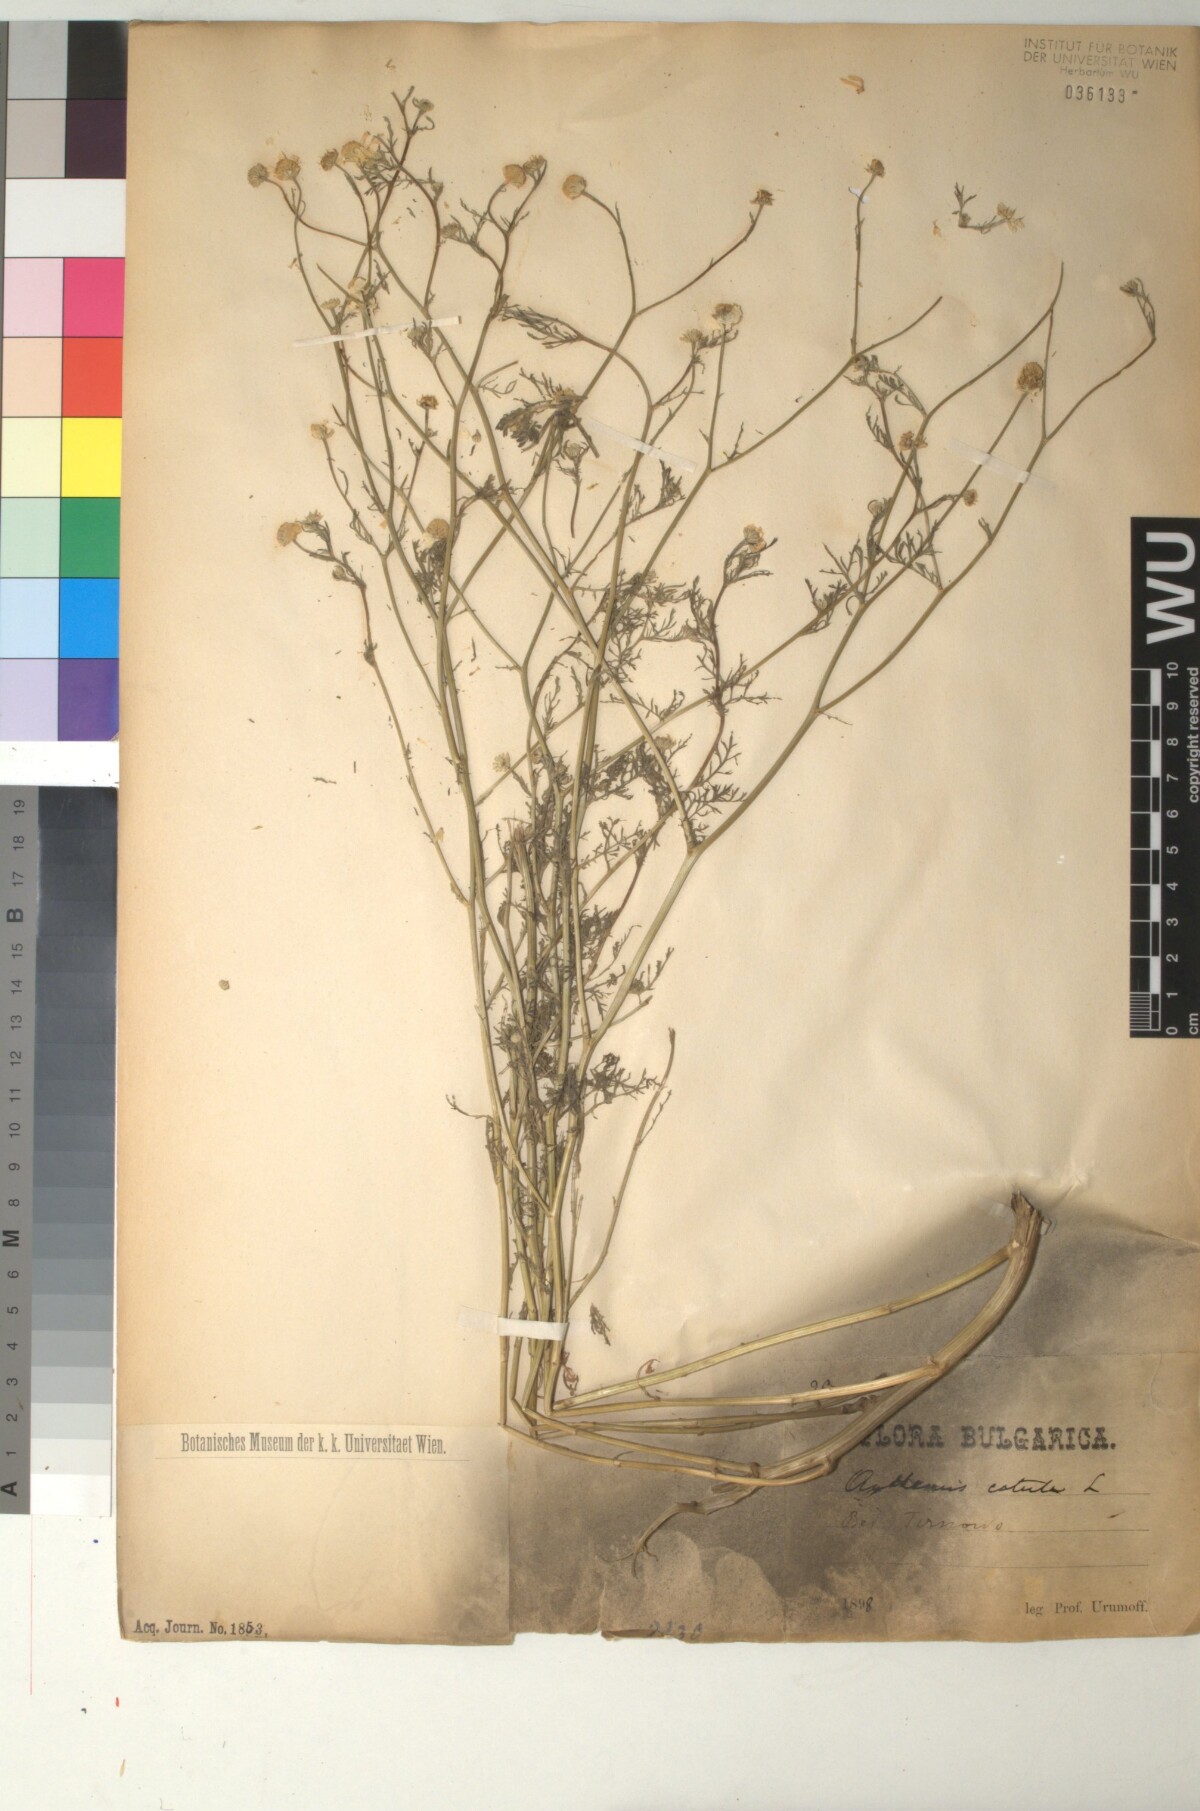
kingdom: Plantae
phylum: Tracheophyta
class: Magnoliopsida
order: Asterales
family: Asteraceae
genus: Anthemis
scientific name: Anthemis cotula
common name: Stinking chamomile
